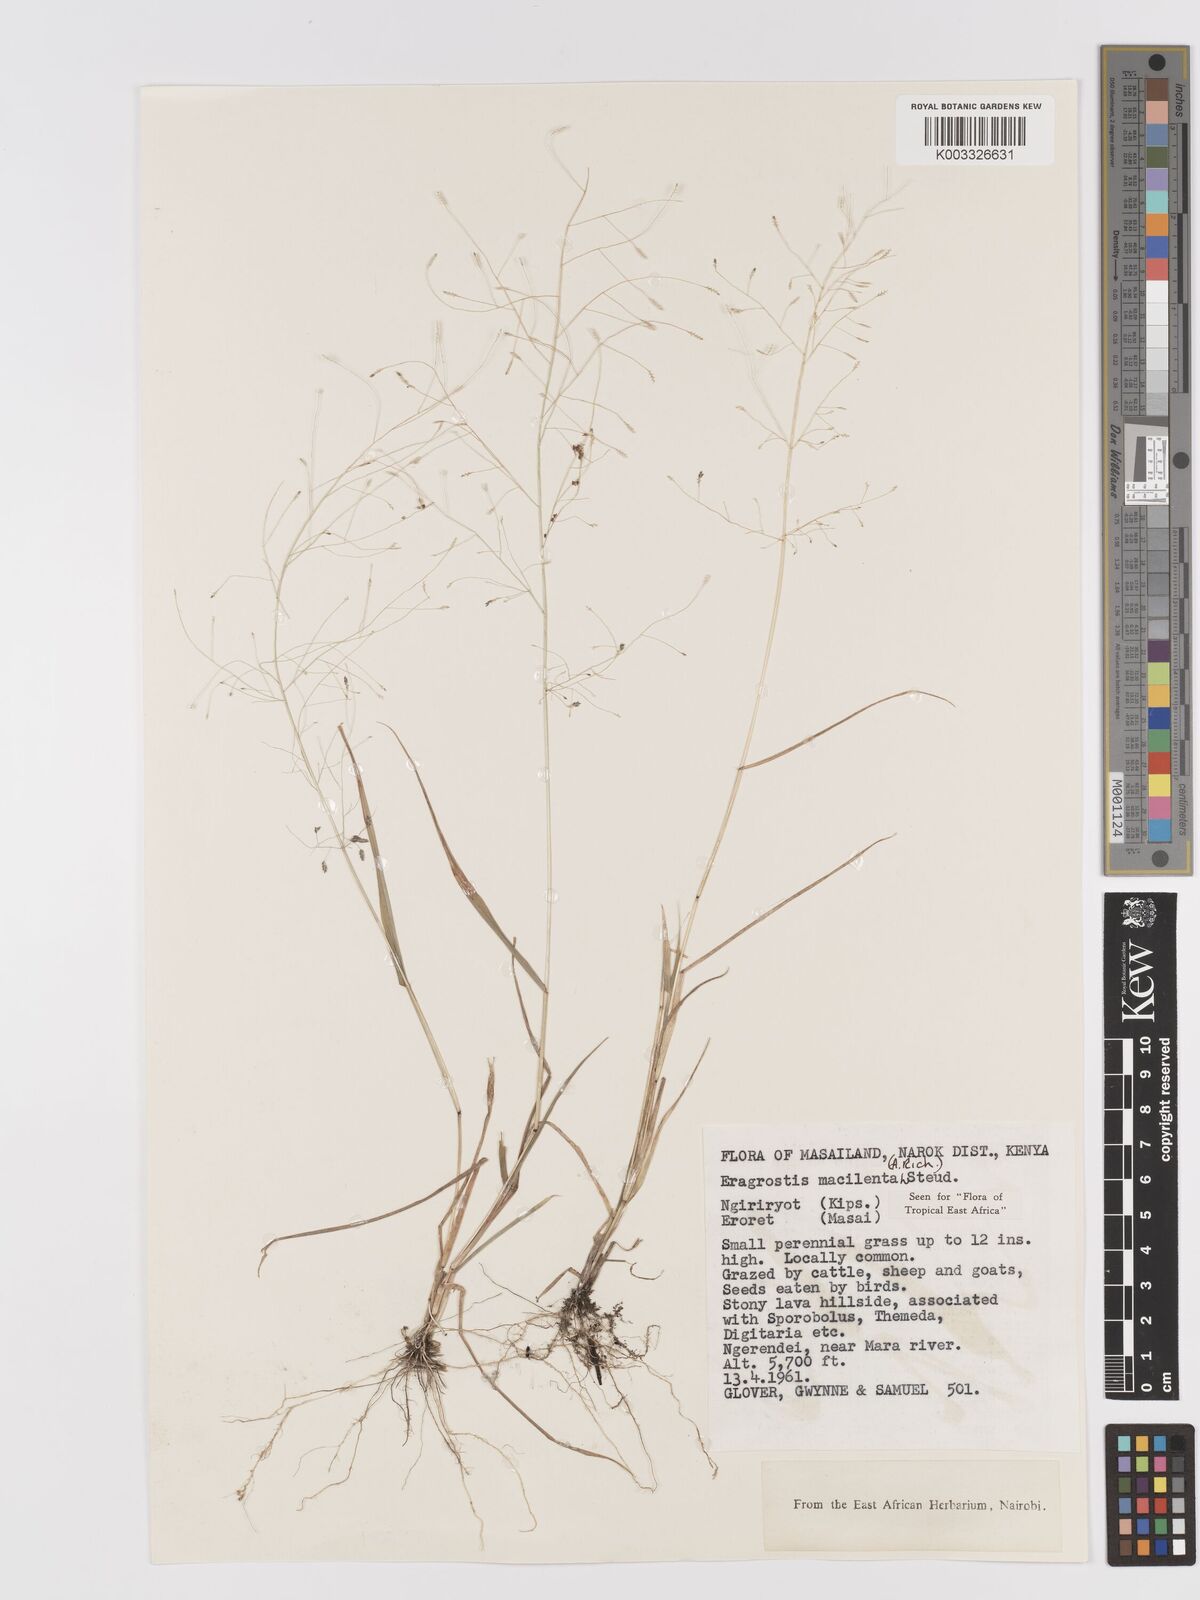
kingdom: Plantae
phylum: Tracheophyta
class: Liliopsida
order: Poales
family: Poaceae
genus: Eragrostis
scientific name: Eragrostis macilenta
